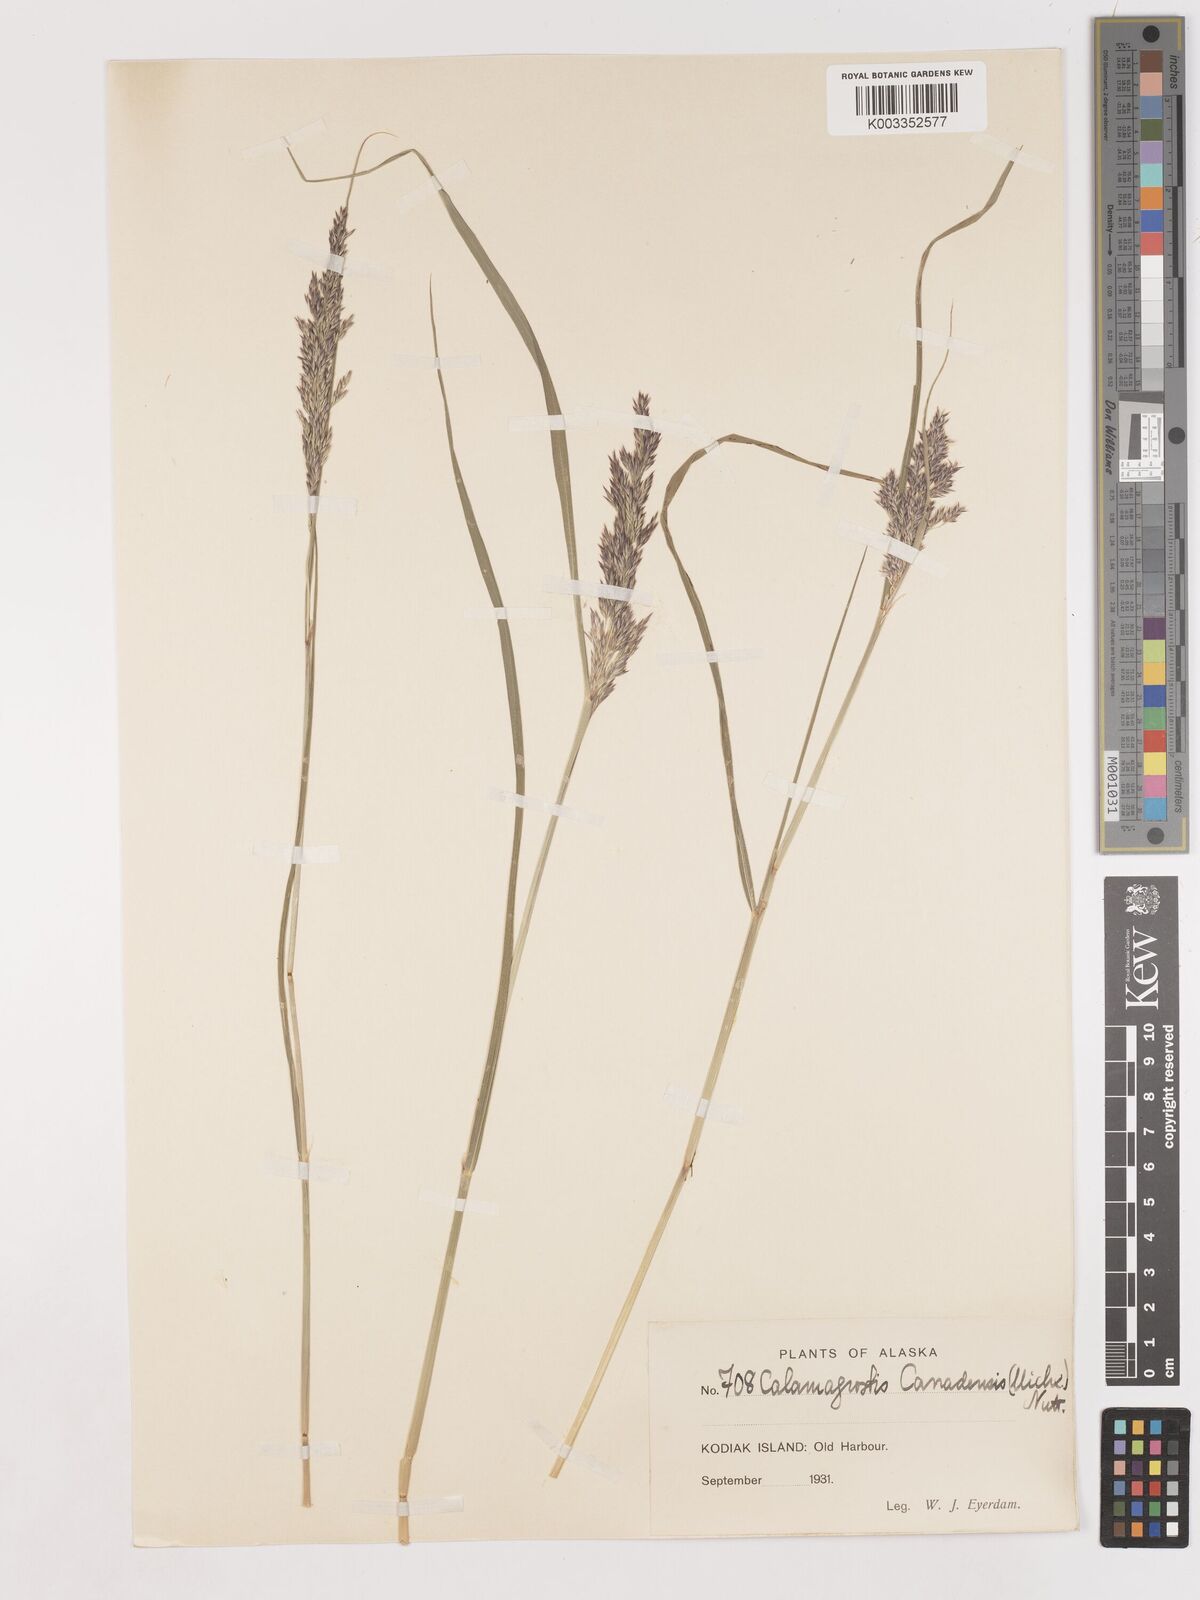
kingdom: Plantae
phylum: Tracheophyta
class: Liliopsida
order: Poales
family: Poaceae
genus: Calamagrostis
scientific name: Calamagrostis canadensis
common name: Canada bluejoint
